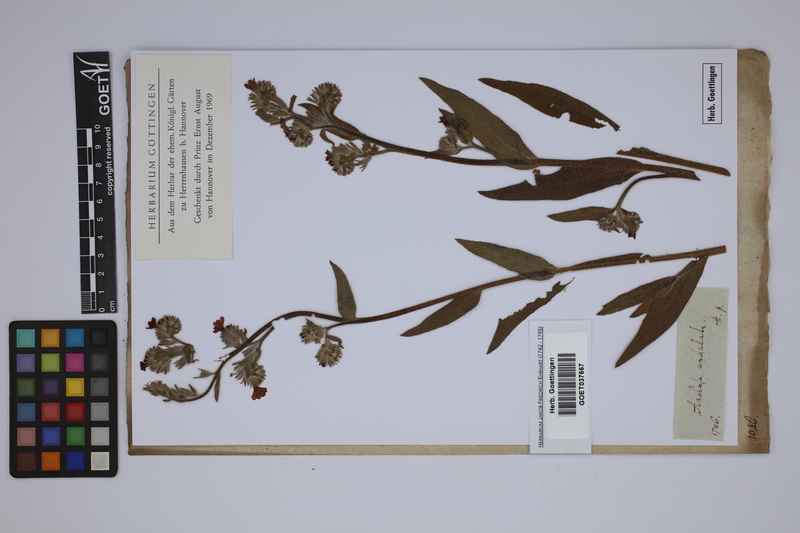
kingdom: Plantae
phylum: Tracheophyta
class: Magnoliopsida
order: Boraginales
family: Boraginaceae
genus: Anchusa
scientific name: Anchusa undulata
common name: Undulate alkanet
